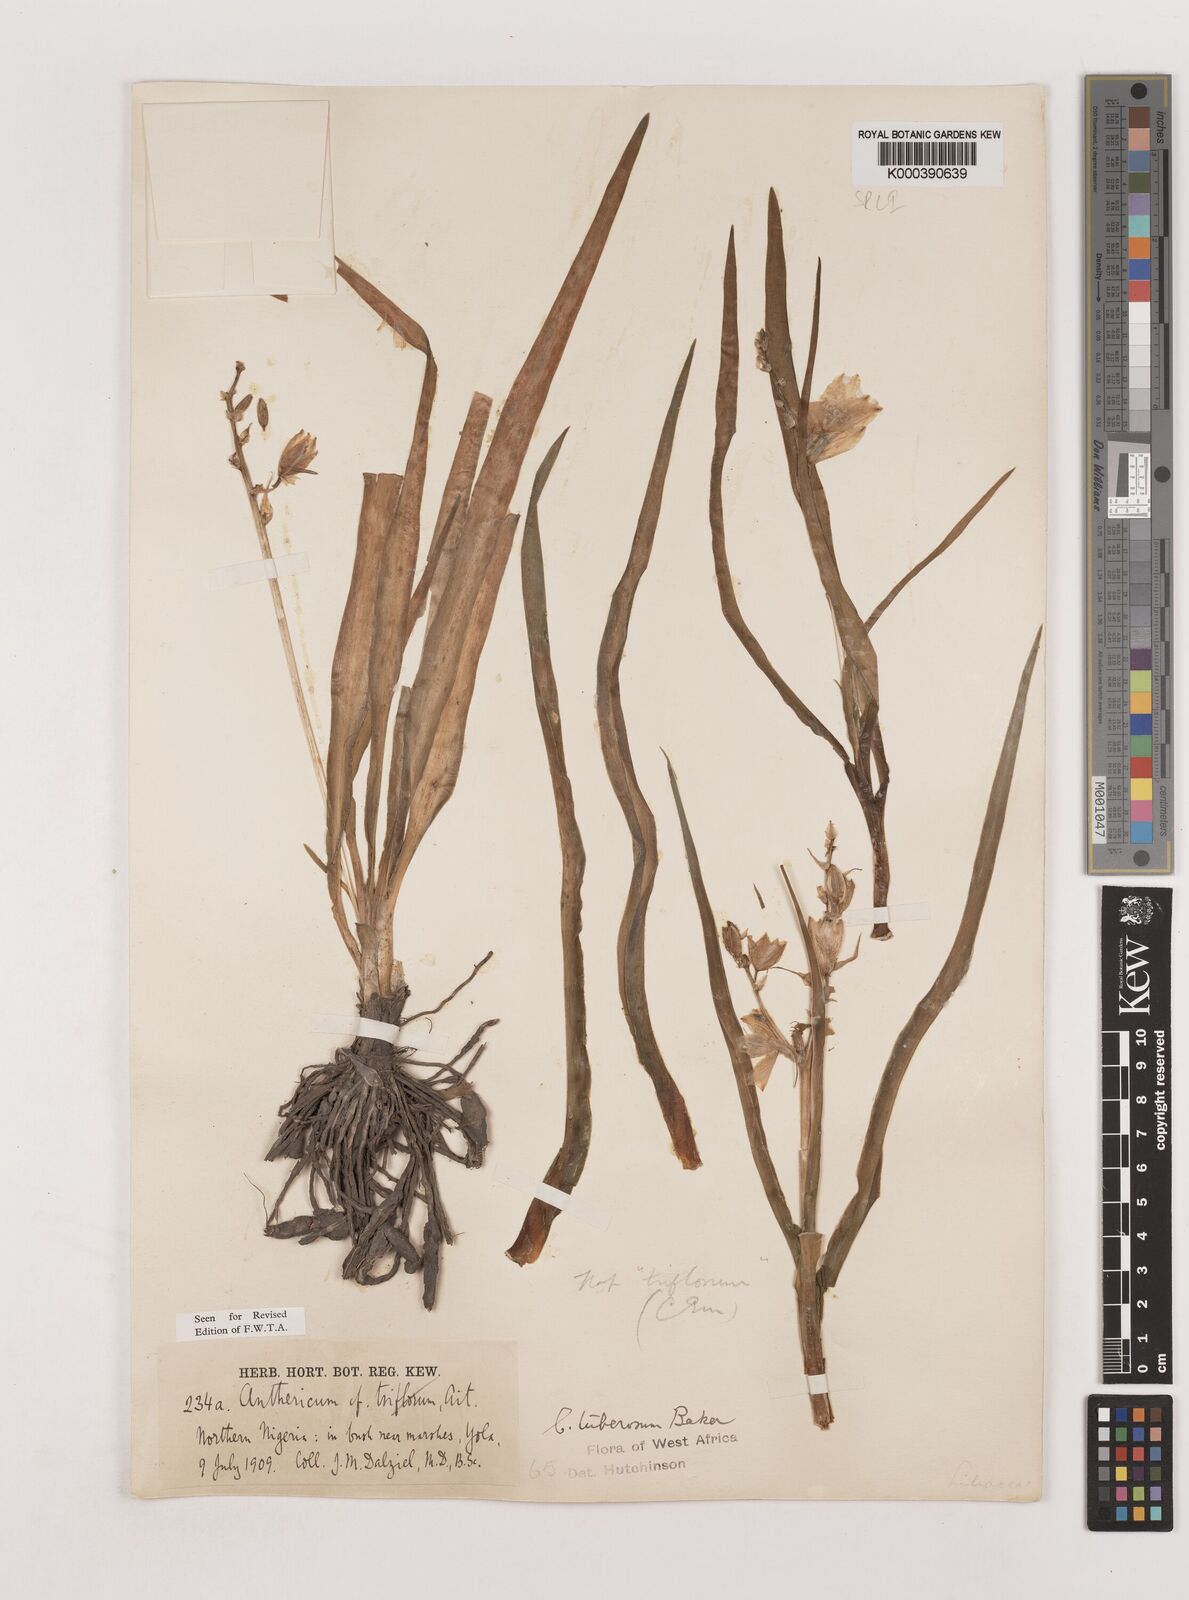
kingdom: Plantae
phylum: Tracheophyta
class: Liliopsida
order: Asparagales
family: Asparagaceae
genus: Chlorophytum
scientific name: Chlorophytum tuberosum
